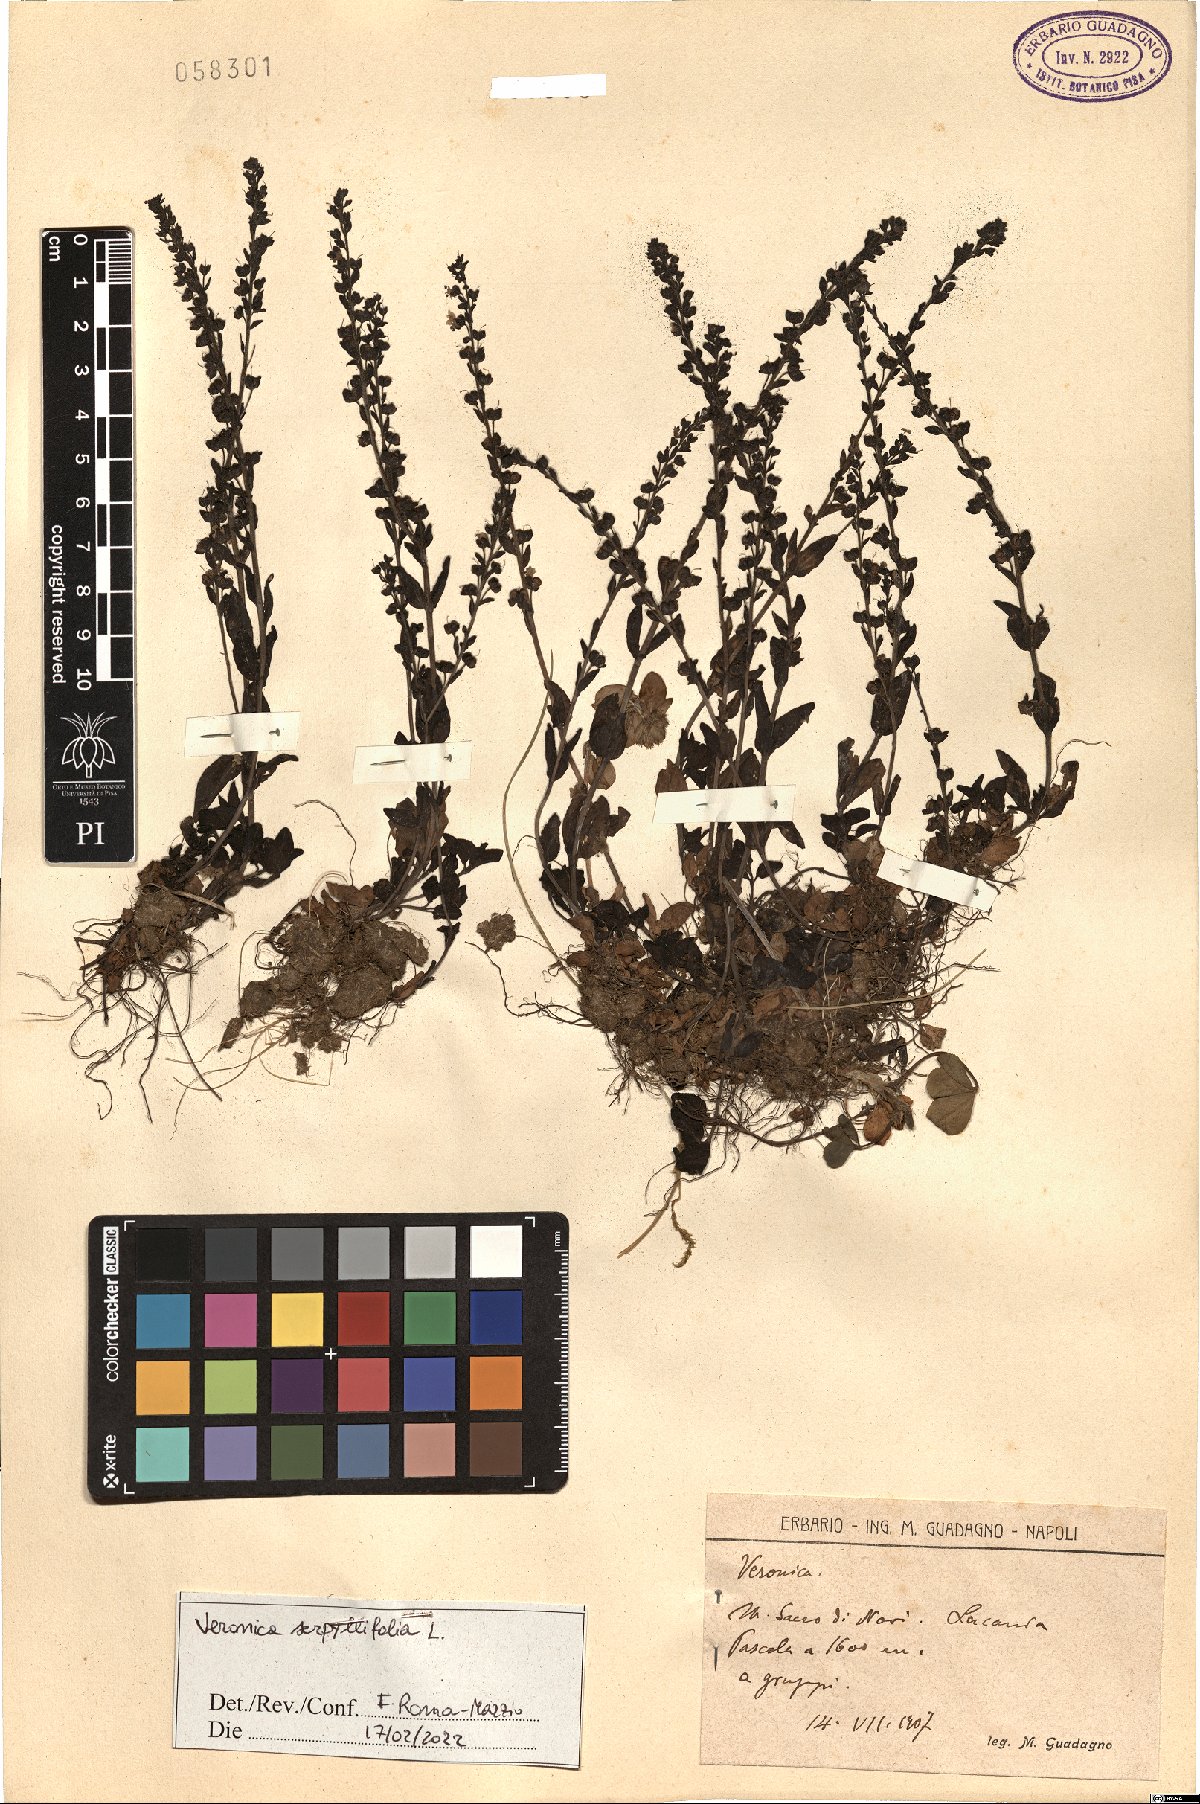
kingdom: Plantae
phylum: Tracheophyta
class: Magnoliopsida
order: Lamiales
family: Plantaginaceae
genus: Veronica
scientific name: Veronica serpyllifolia
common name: Thyme-leaved speedwell
